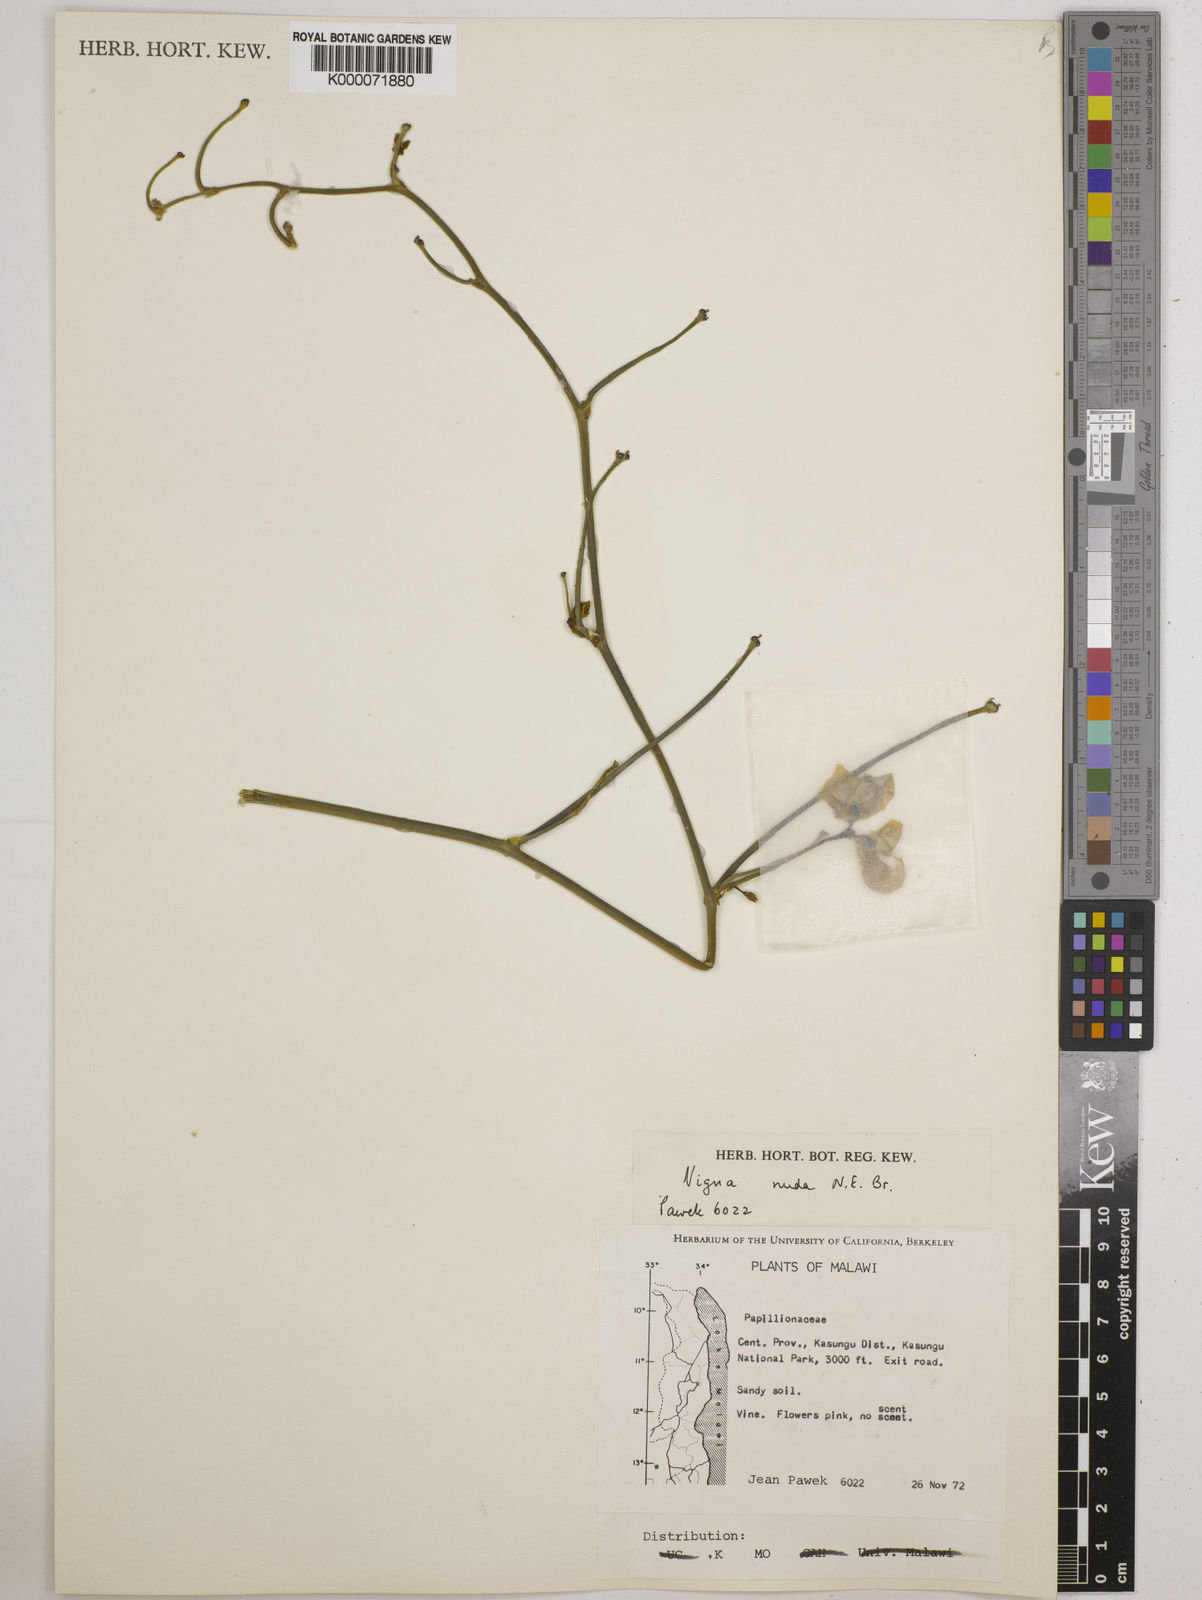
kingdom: Plantae
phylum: Tracheophyta
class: Magnoliopsida
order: Fabales
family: Fabaceae
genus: Vigna
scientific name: Vigna antunesii
